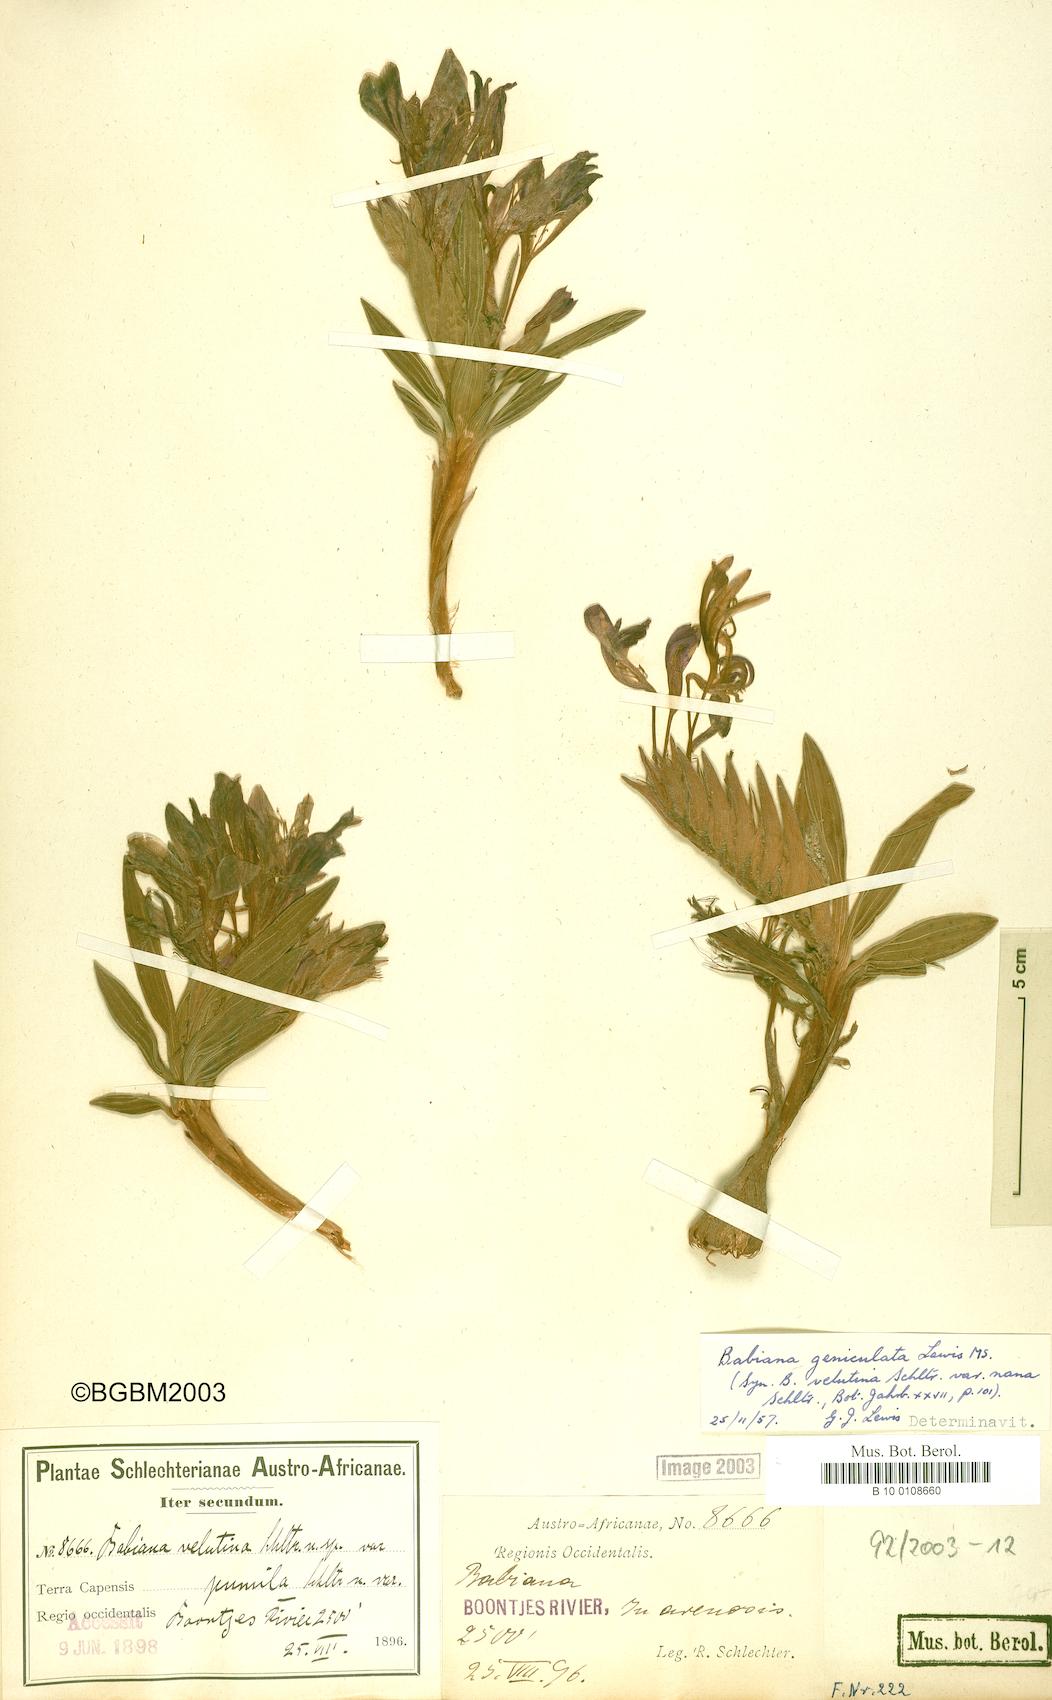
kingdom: Plantae
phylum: Tracheophyta
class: Liliopsida
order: Asparagales
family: Iridaceae
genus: Babiana
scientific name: Babiana geniculata
